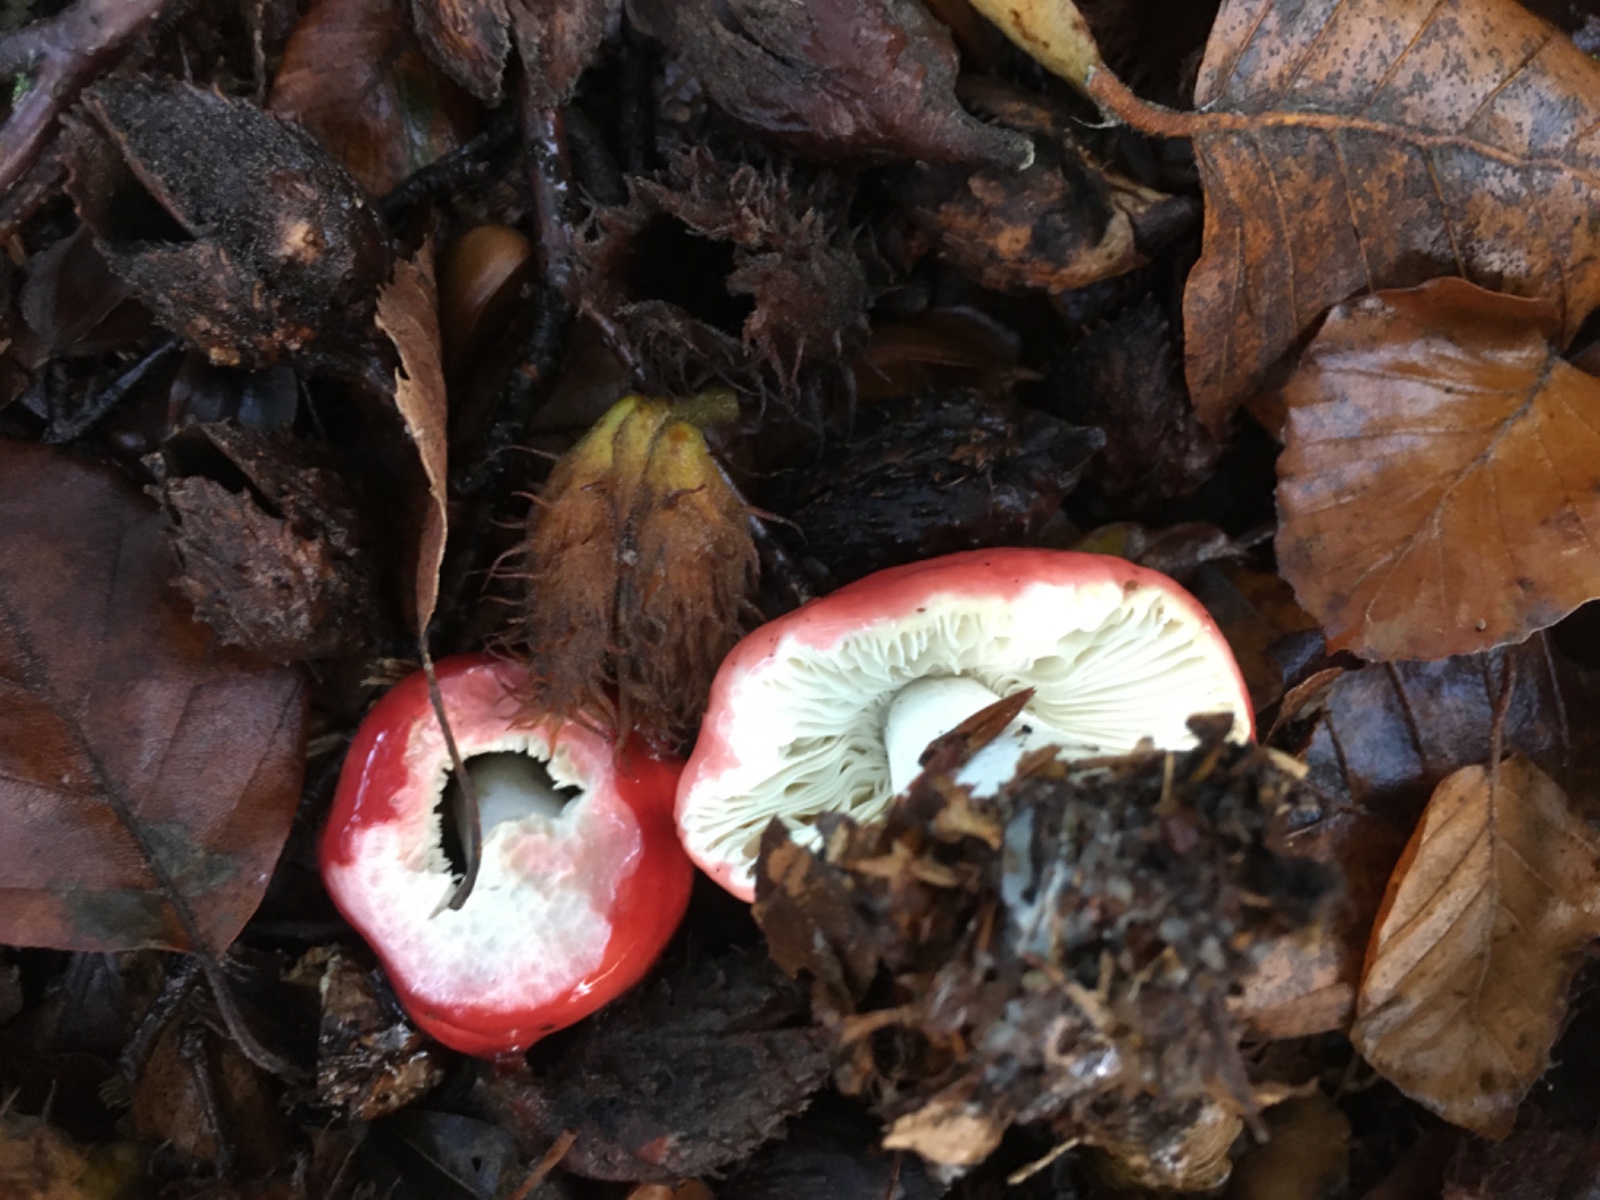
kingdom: Fungi
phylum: Basidiomycota
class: Agaricomycetes
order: Russulales
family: Russulaceae
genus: Russula
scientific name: Russula nobilis
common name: lille gift-skørhat
